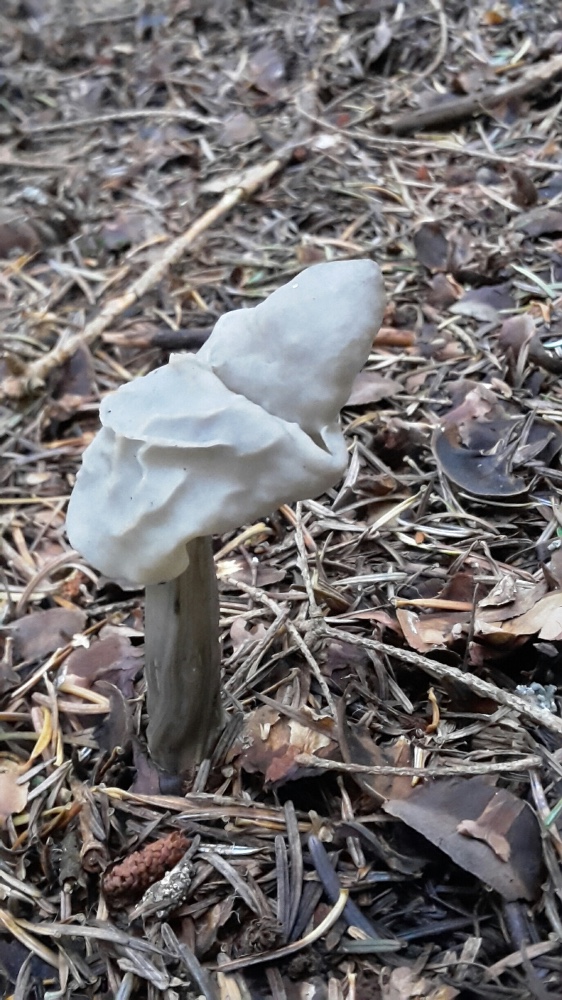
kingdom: Fungi
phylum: Ascomycota
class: Pezizomycetes
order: Pezizales
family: Helvellaceae
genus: Helvella
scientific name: Helvella lacunosa
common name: grubet foldhat
